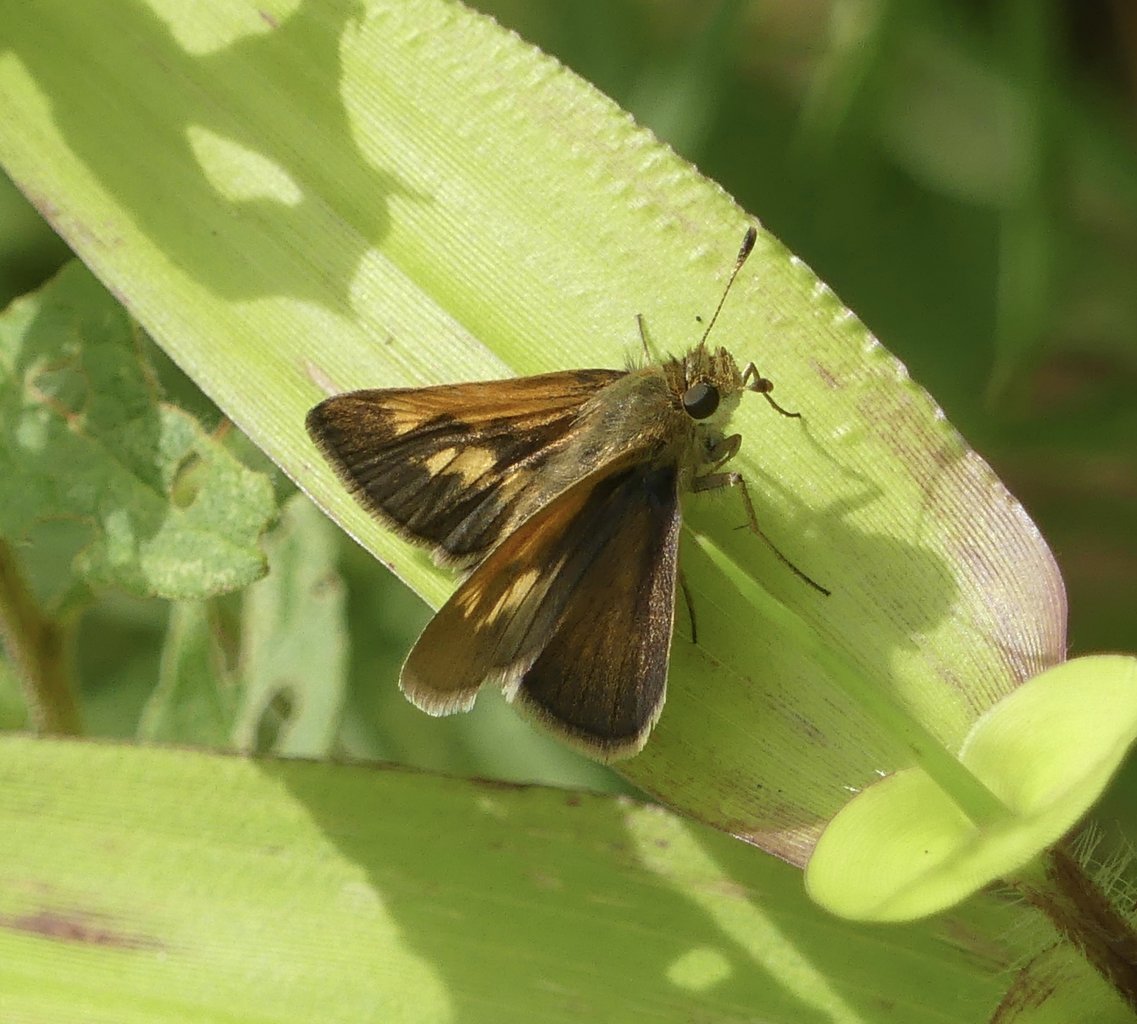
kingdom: Animalia
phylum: Arthropoda
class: Insecta
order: Lepidoptera
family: Hesperiidae
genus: Polites
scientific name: Polites themistocles
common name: Tawny-edged Skipper
